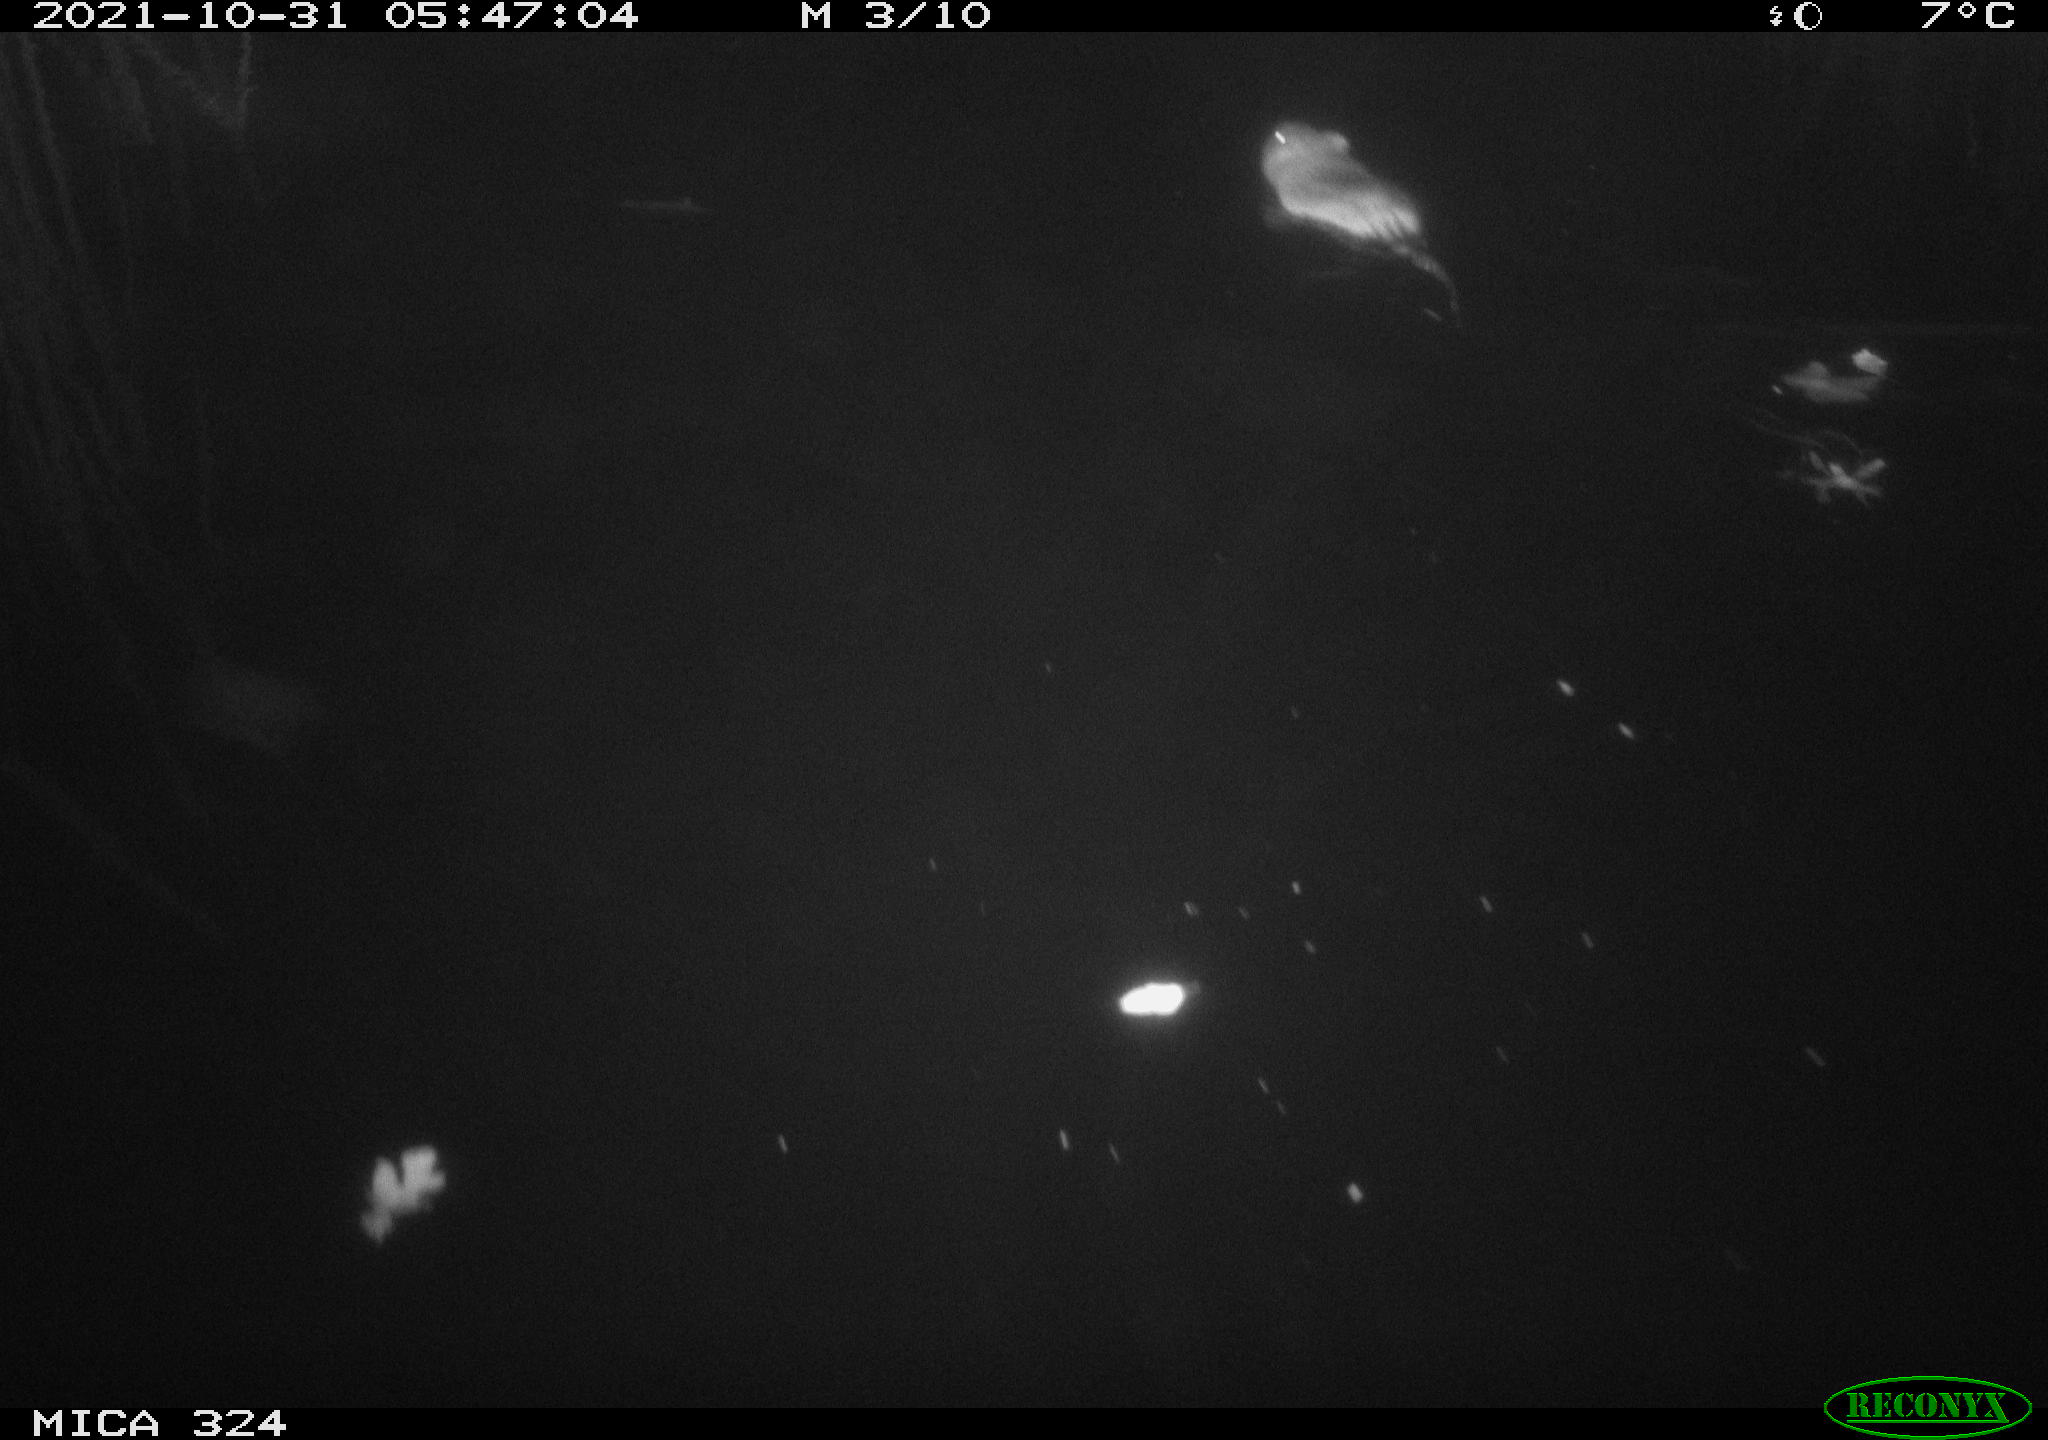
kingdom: Animalia
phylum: Chordata
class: Mammalia
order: Rodentia
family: Cricetidae
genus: Ondatra
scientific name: Ondatra zibethicus
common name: Muskrat
